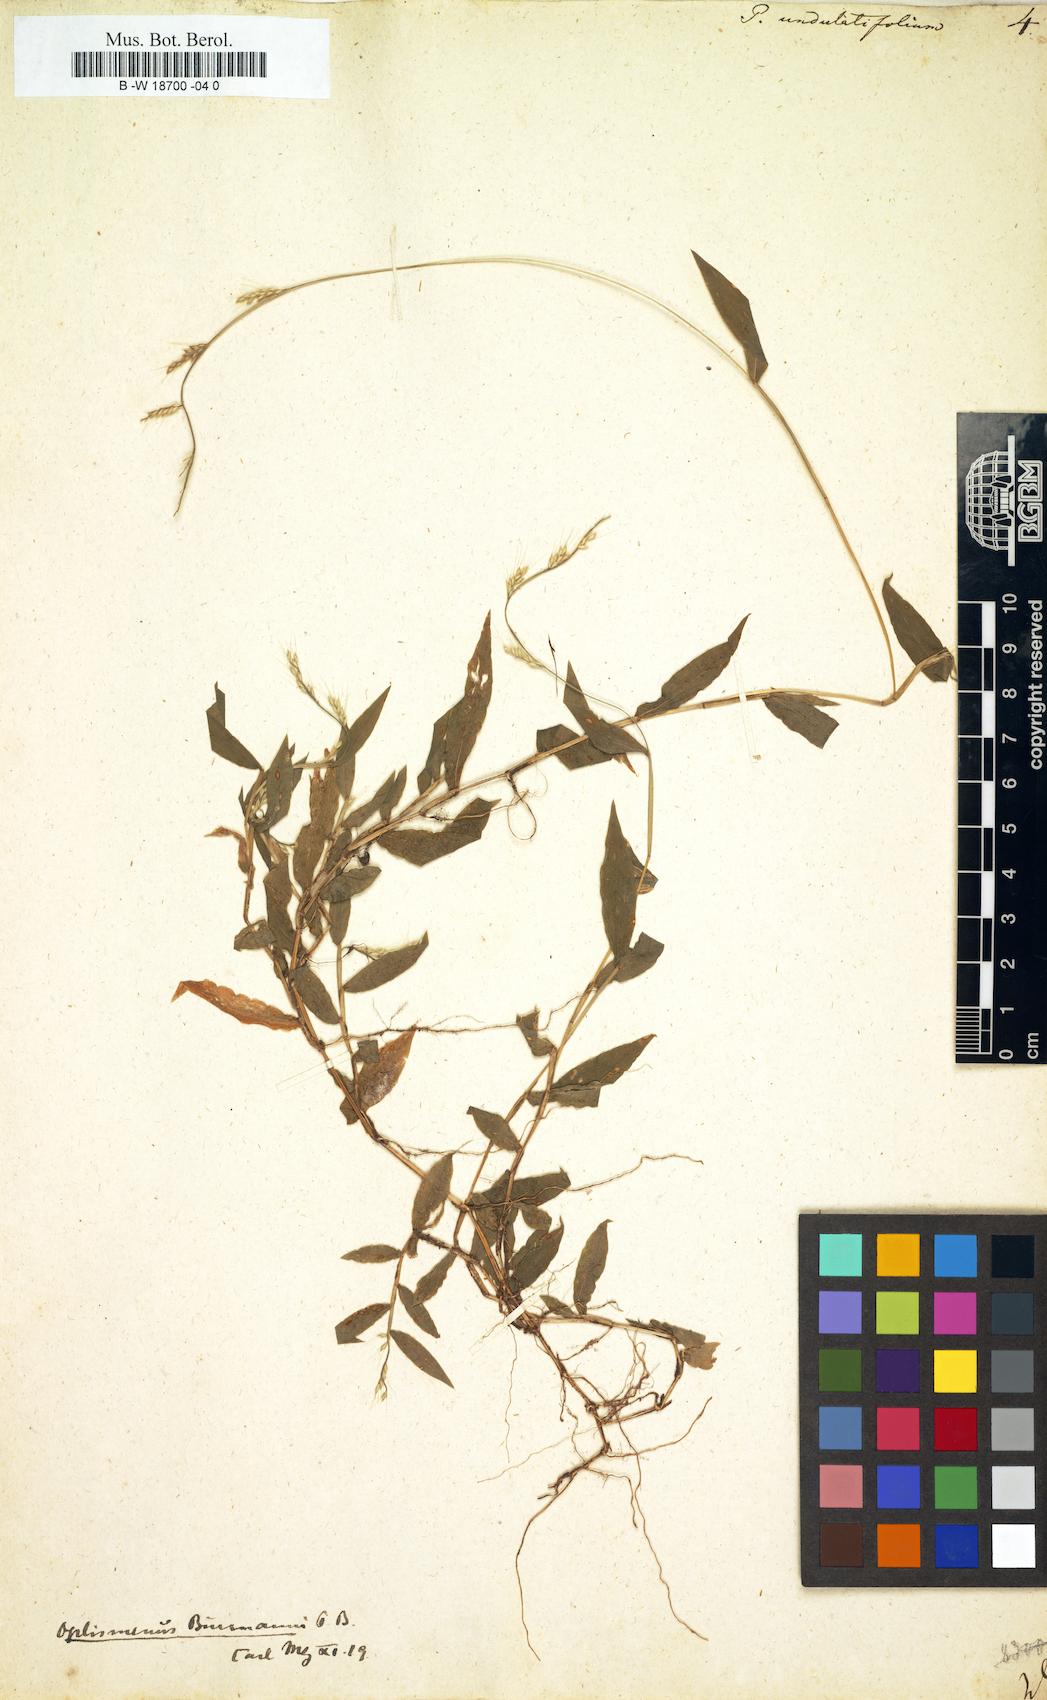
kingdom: Plantae
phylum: Tracheophyta
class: Liliopsida
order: Poales
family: Poaceae
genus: Oplismenus
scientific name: Oplismenus undulatifolius
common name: Wavyleaf basketgrass
